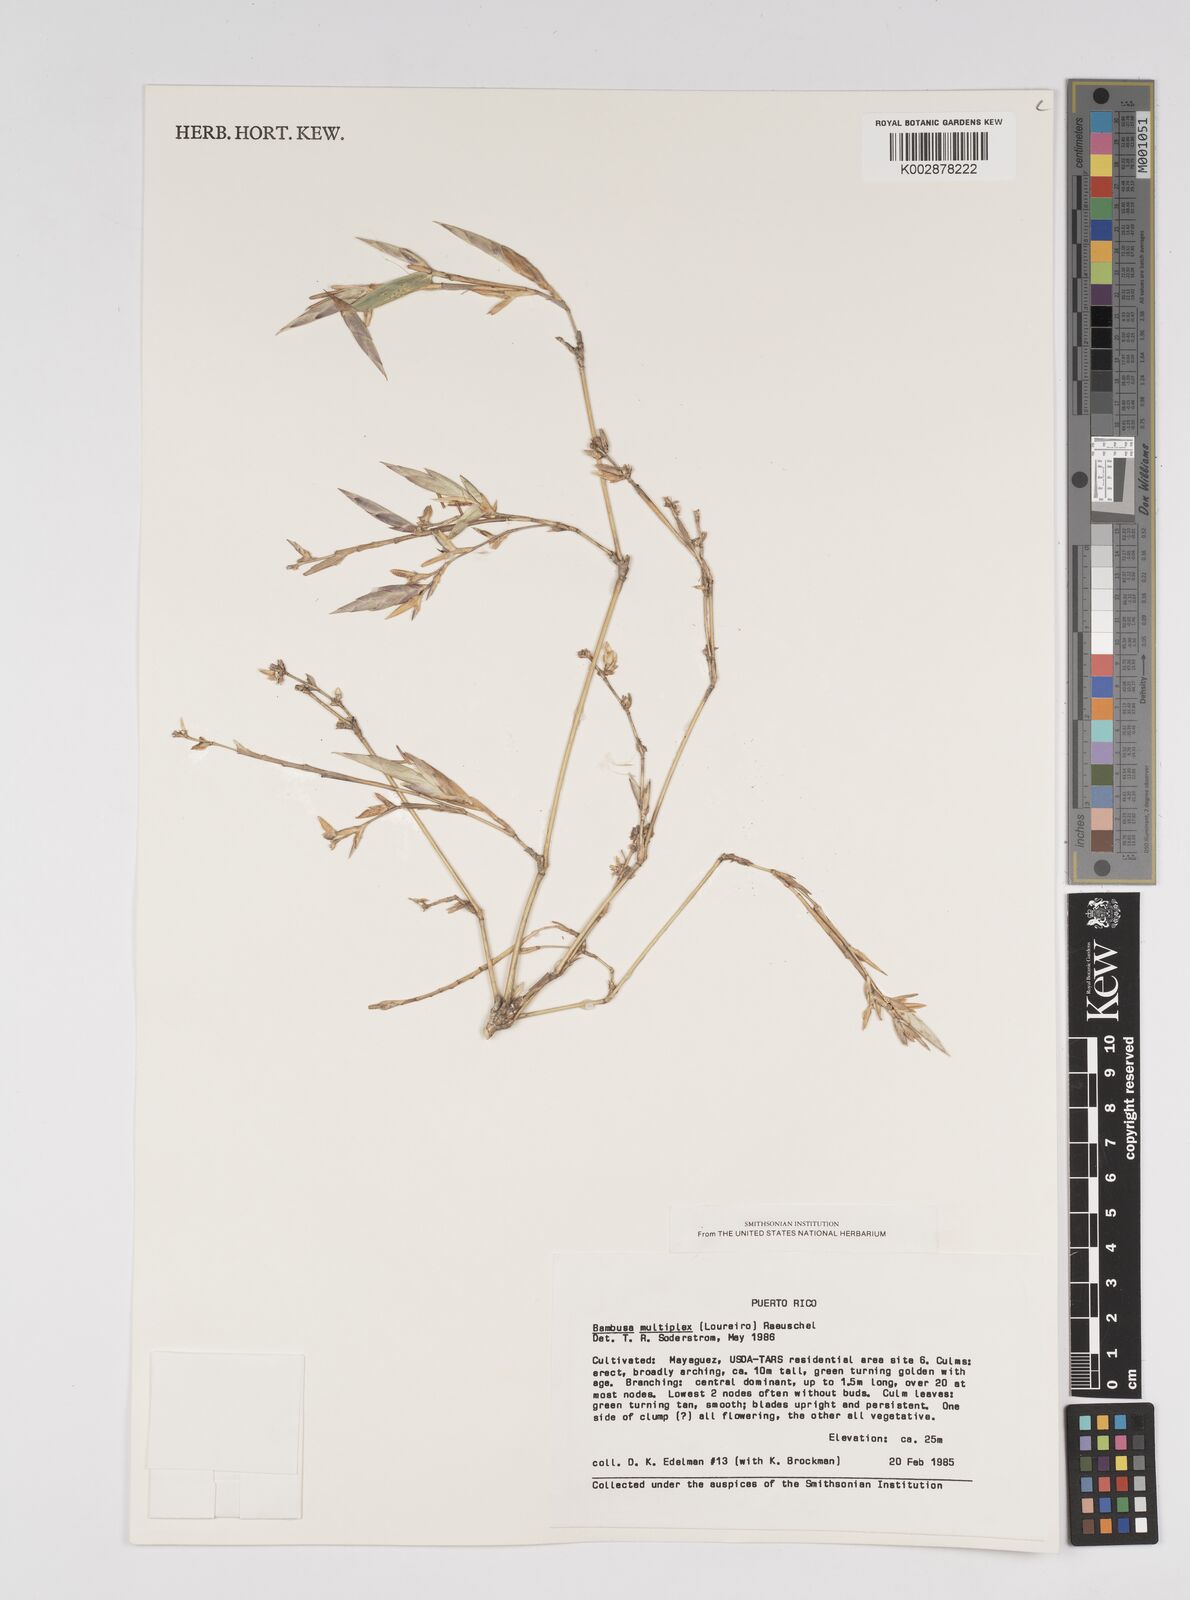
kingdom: Plantae
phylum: Tracheophyta
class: Liliopsida
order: Poales
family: Poaceae
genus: Bambusa
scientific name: Bambusa multiplex
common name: Hedge bamboo
